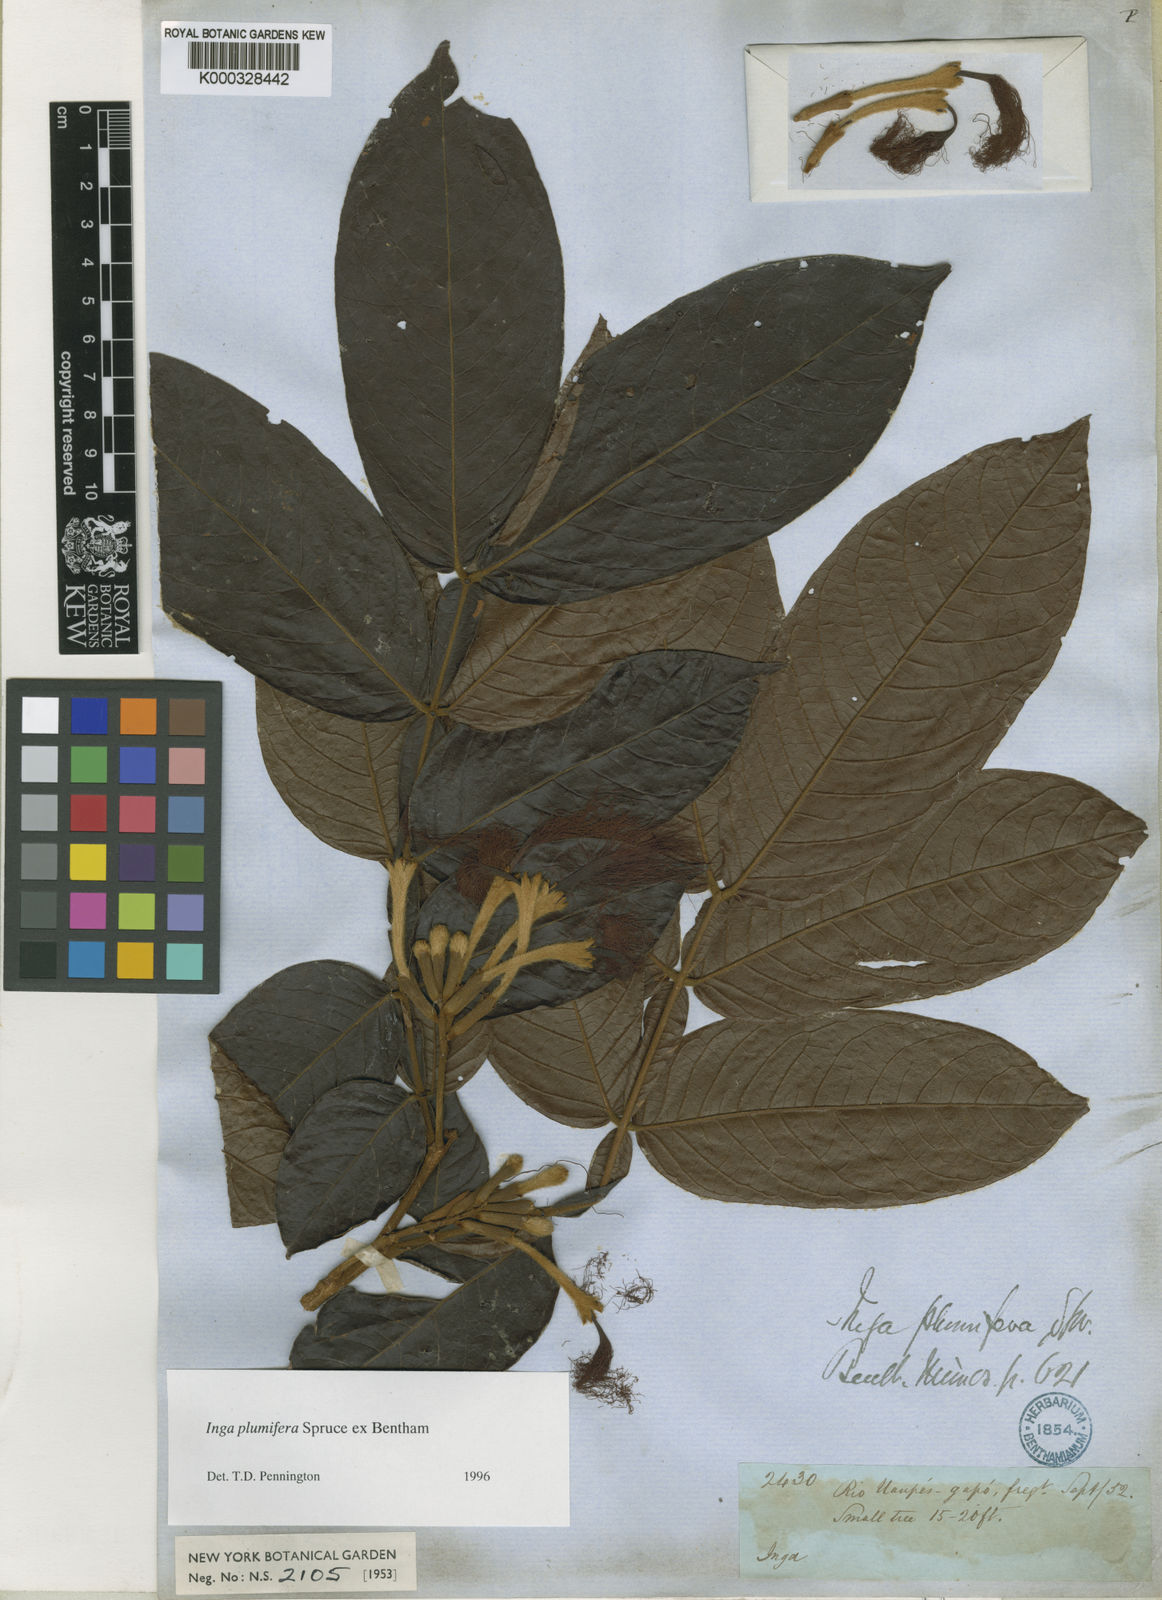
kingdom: Plantae
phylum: Tracheophyta
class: Magnoliopsida
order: Fabales
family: Fabaceae
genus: Inga
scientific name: Inga plumifera
